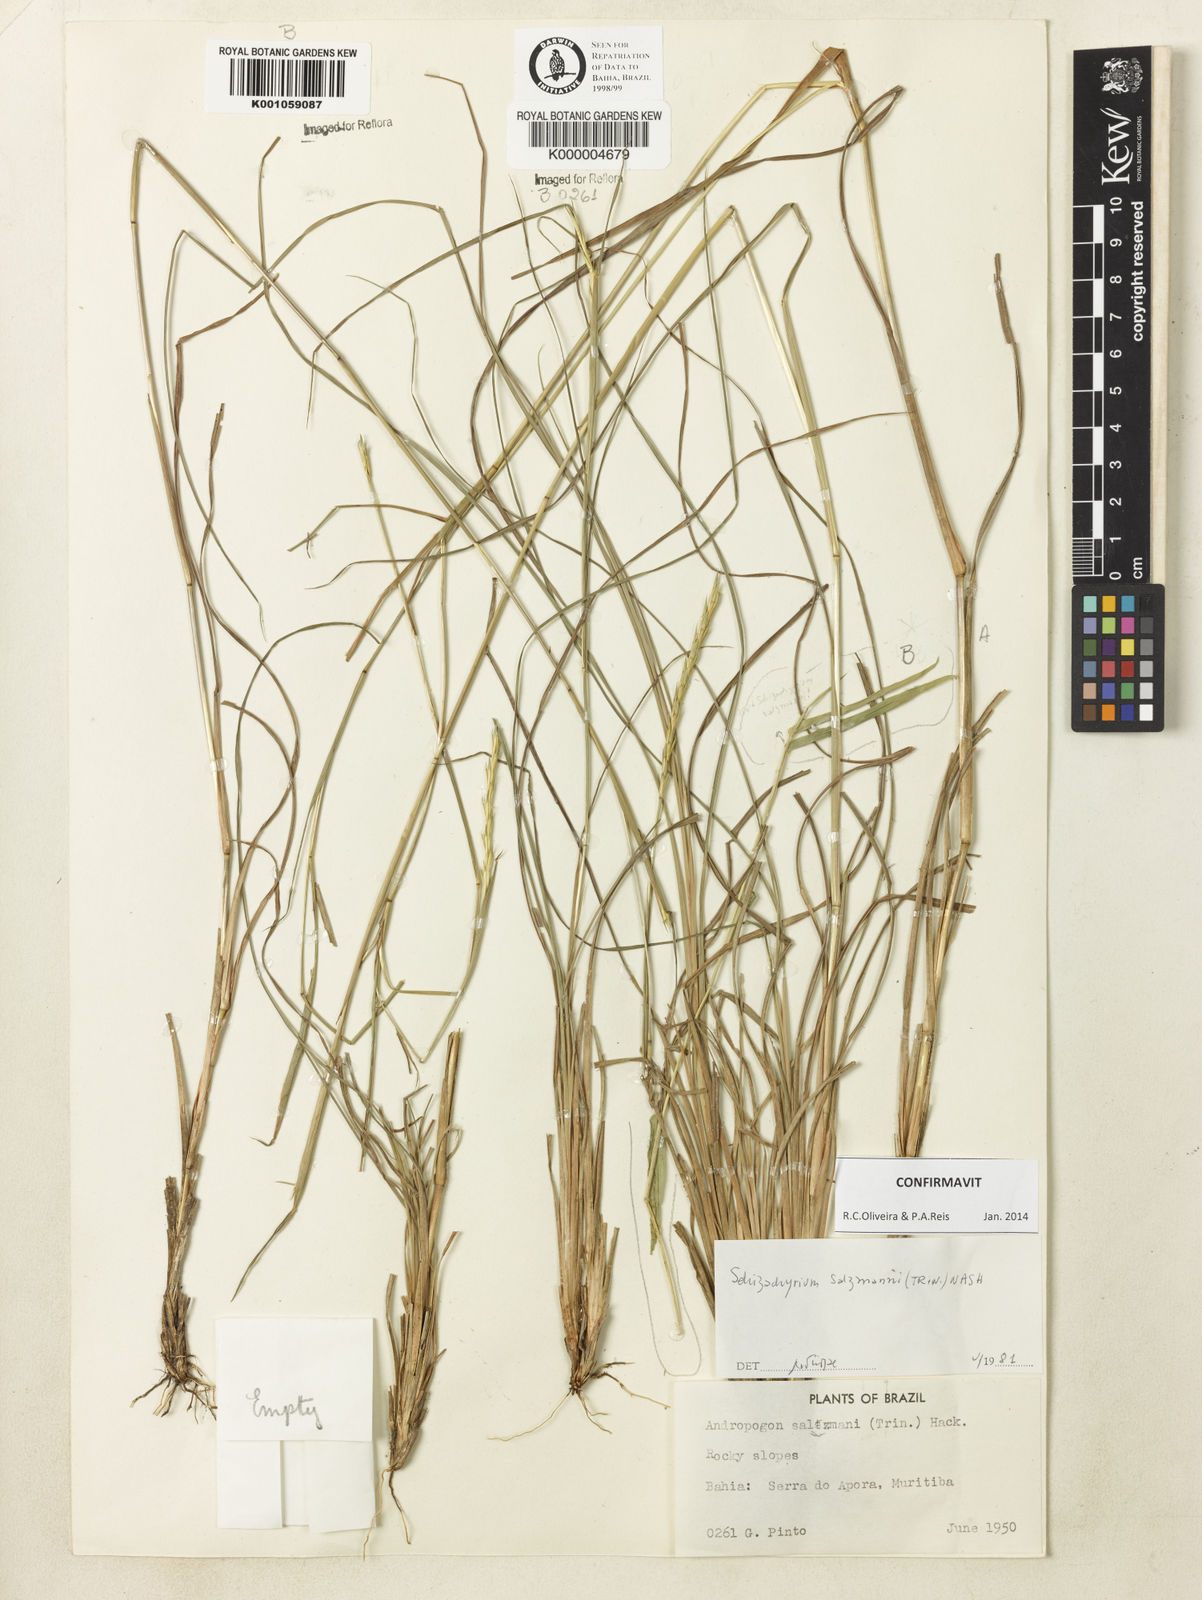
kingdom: Plantae
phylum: Tracheophyta
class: Liliopsida
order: Poales
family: Poaceae
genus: Andropogon
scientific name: Andropogon salzmannii
